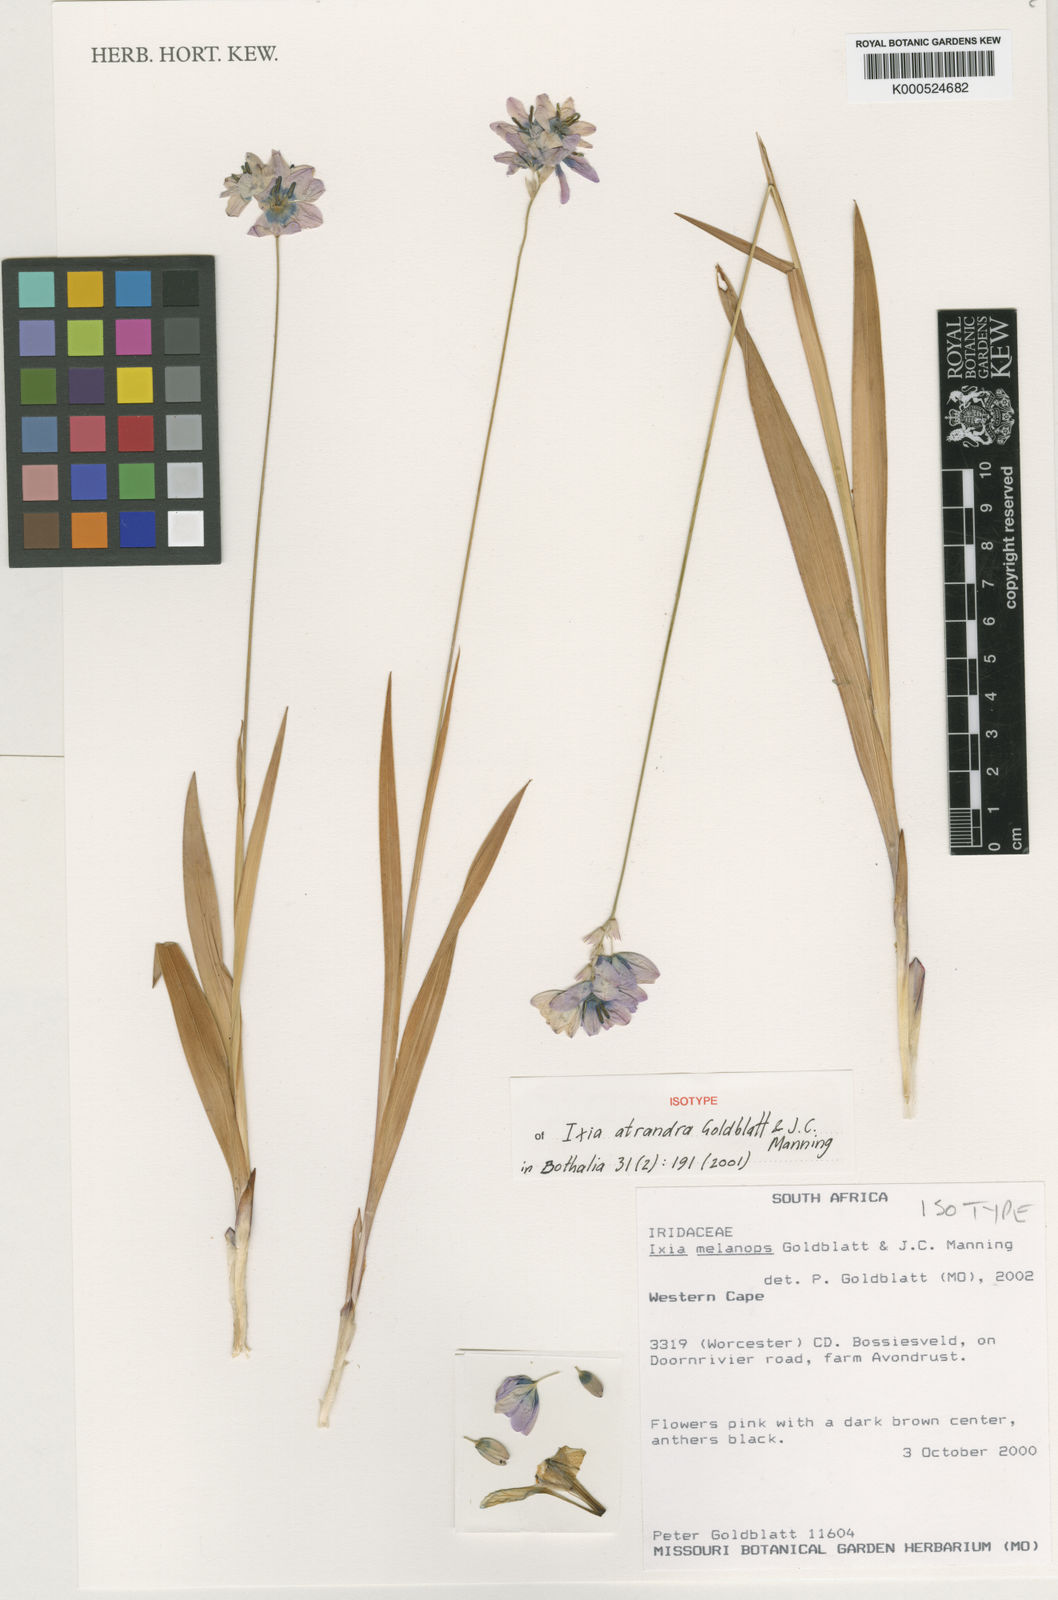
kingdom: Plantae
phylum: Tracheophyta
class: Liliopsida
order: Asparagales
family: Iridaceae
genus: Ixia
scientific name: Ixia atrandra
